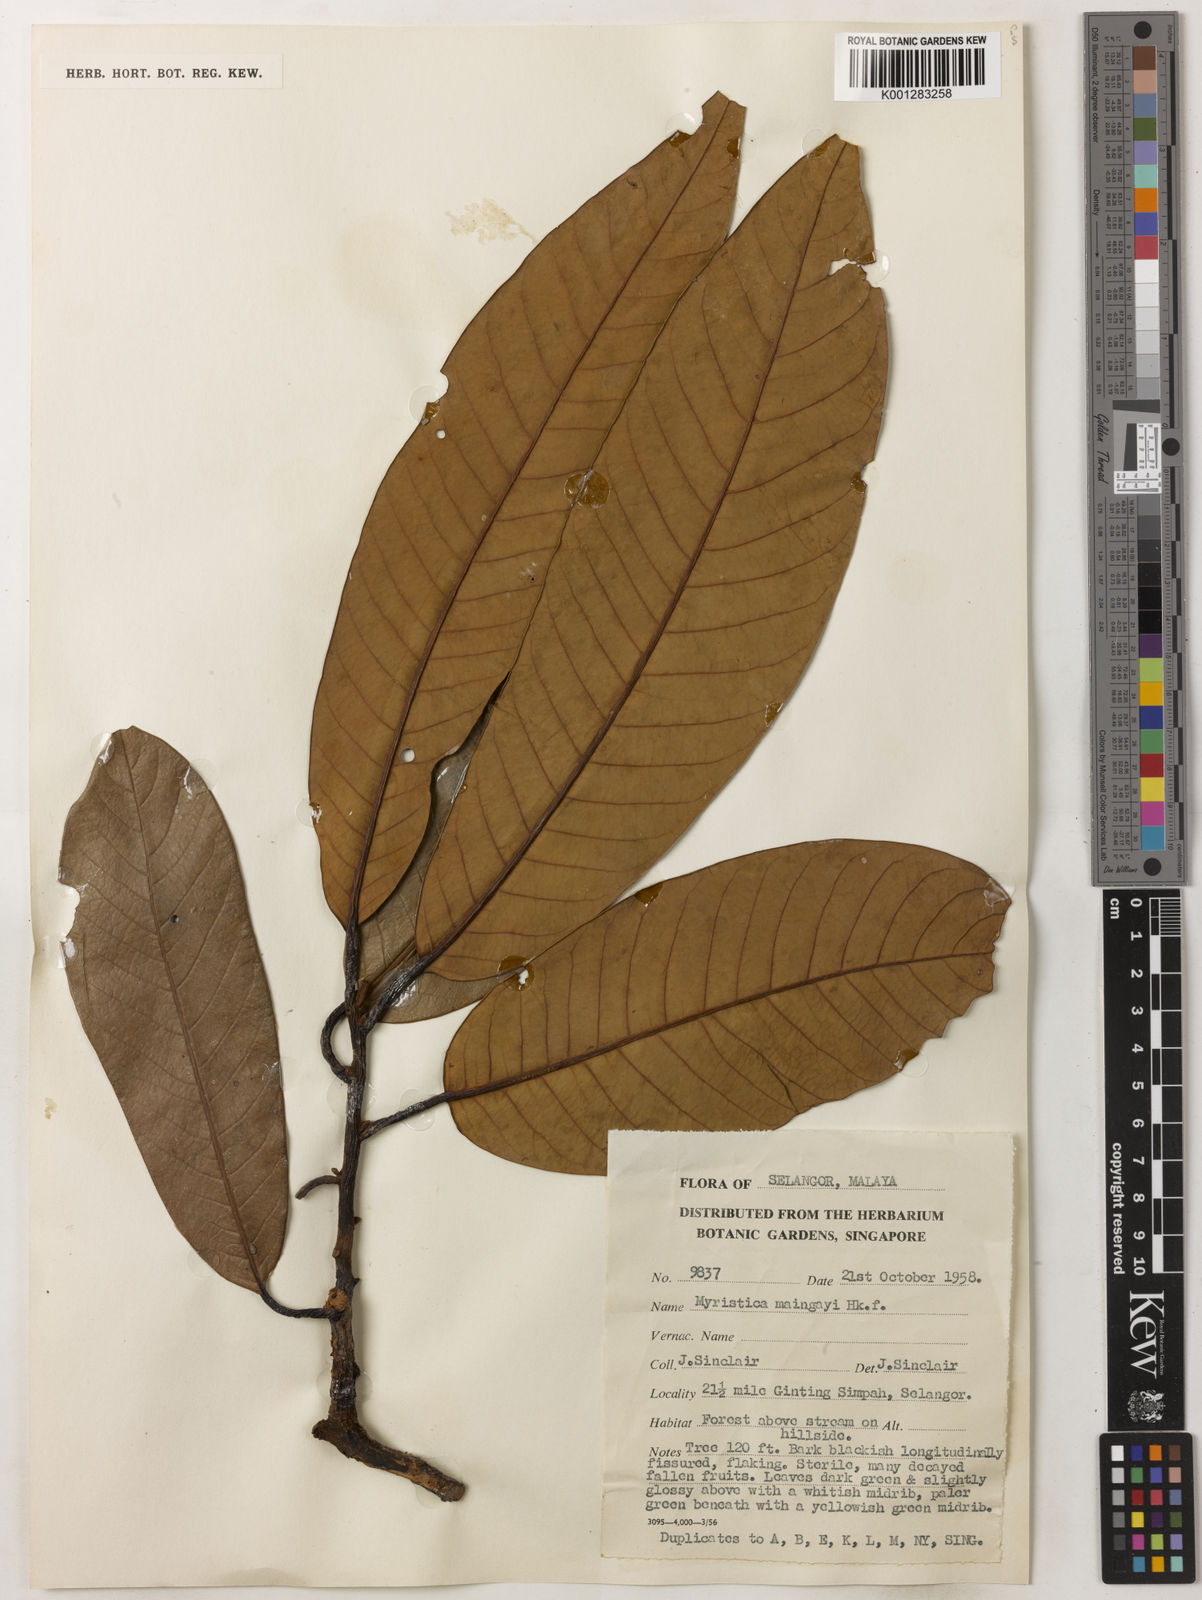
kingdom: Plantae
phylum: Tracheophyta
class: Magnoliopsida
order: Magnoliales
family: Myristicaceae
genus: Myristica
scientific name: Myristica maingayi
